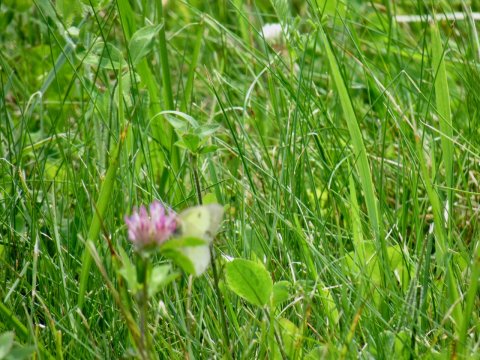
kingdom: Animalia
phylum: Arthropoda
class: Insecta
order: Lepidoptera
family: Pieridae
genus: Colias
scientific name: Colias philodice
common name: Clouded Sulphur
